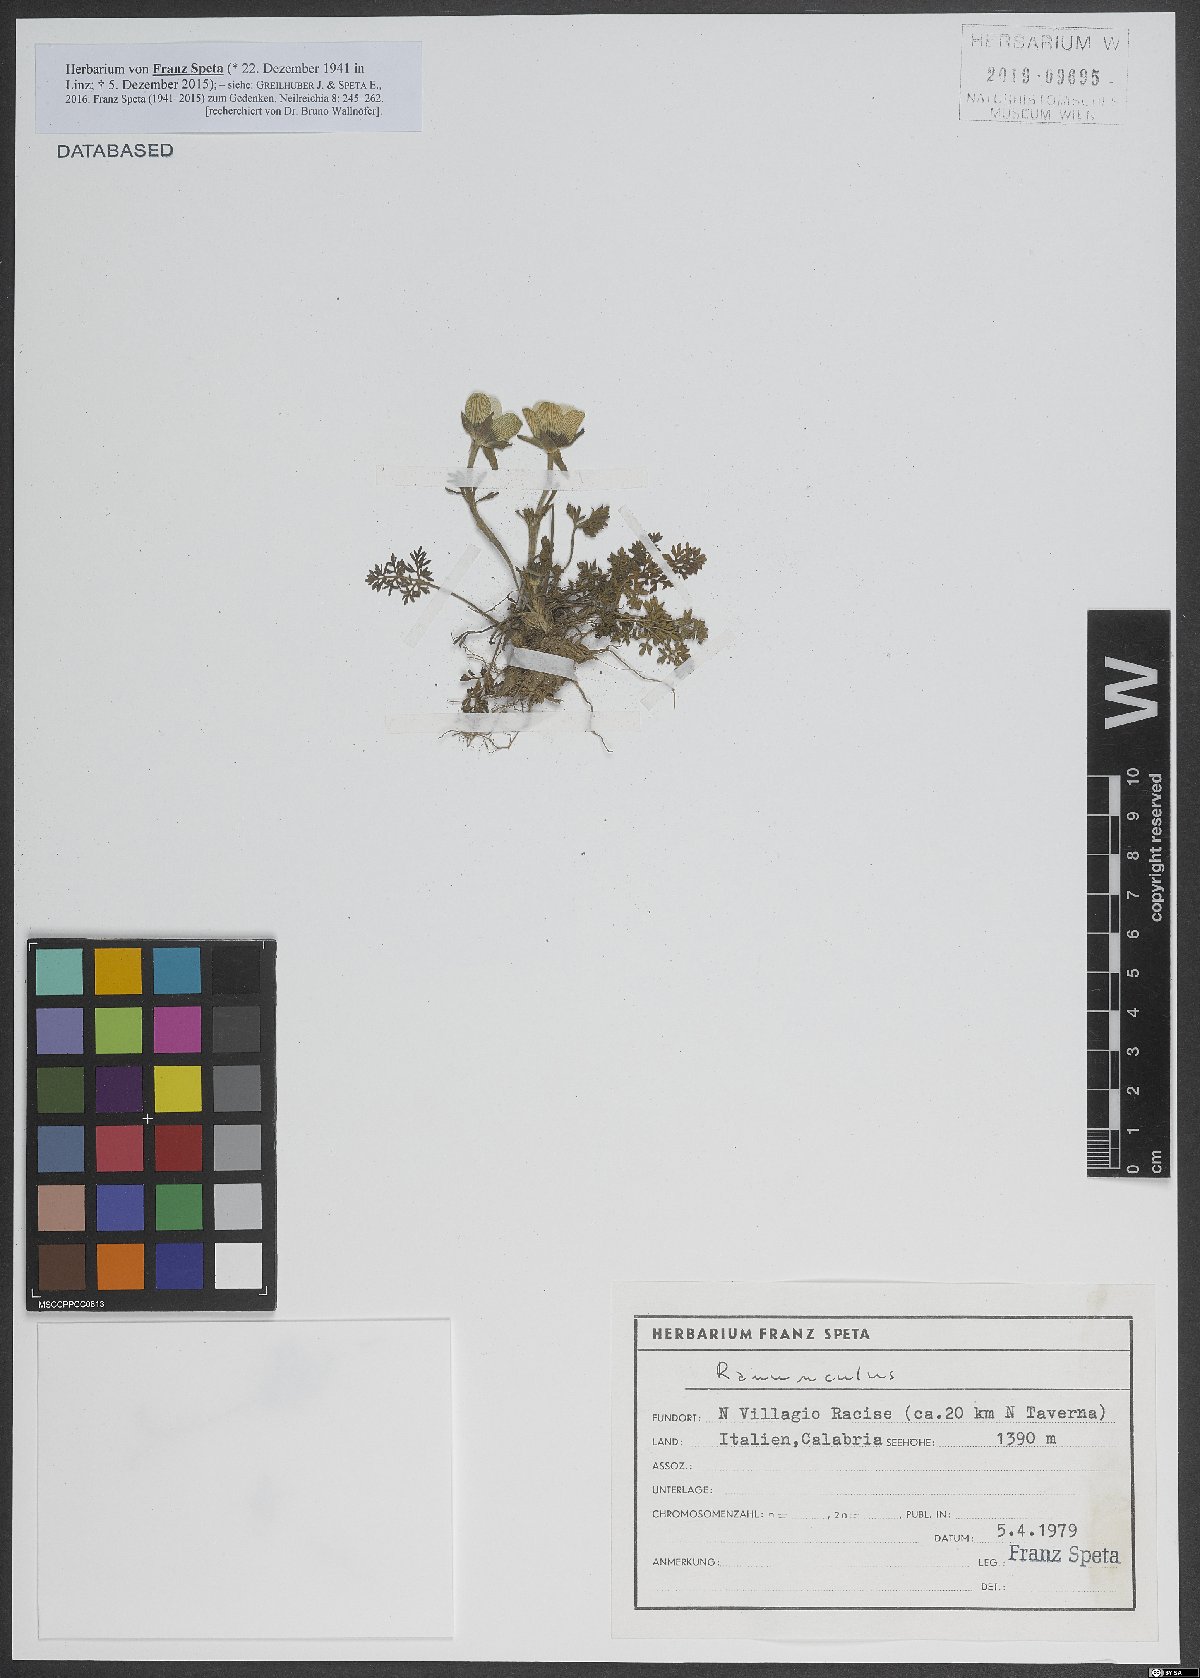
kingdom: Plantae
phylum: Tracheophyta
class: Magnoliopsida
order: Ranunculales
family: Ranunculaceae
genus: Ranunculus
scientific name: Ranunculus
